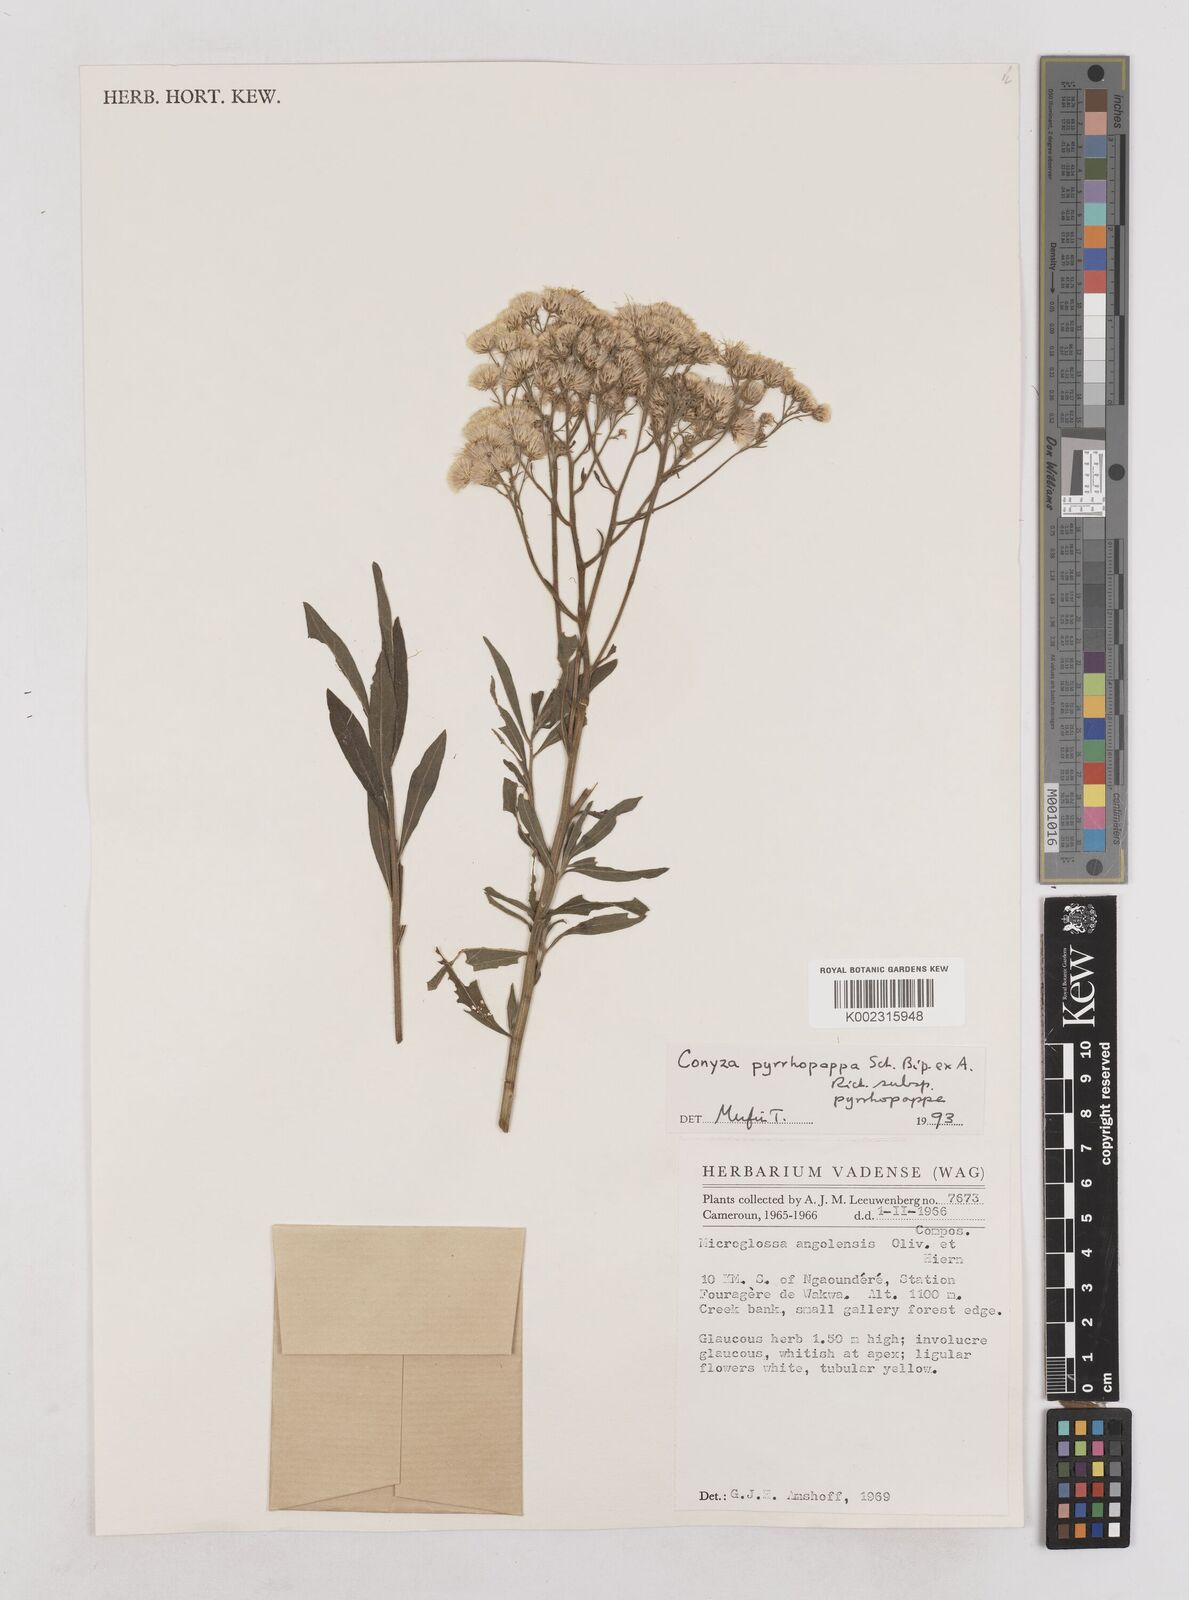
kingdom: Plantae
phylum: Tracheophyta
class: Magnoliopsida
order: Asterales
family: Asteraceae
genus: Microglossa
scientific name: Microglossa pyrrhopappa
